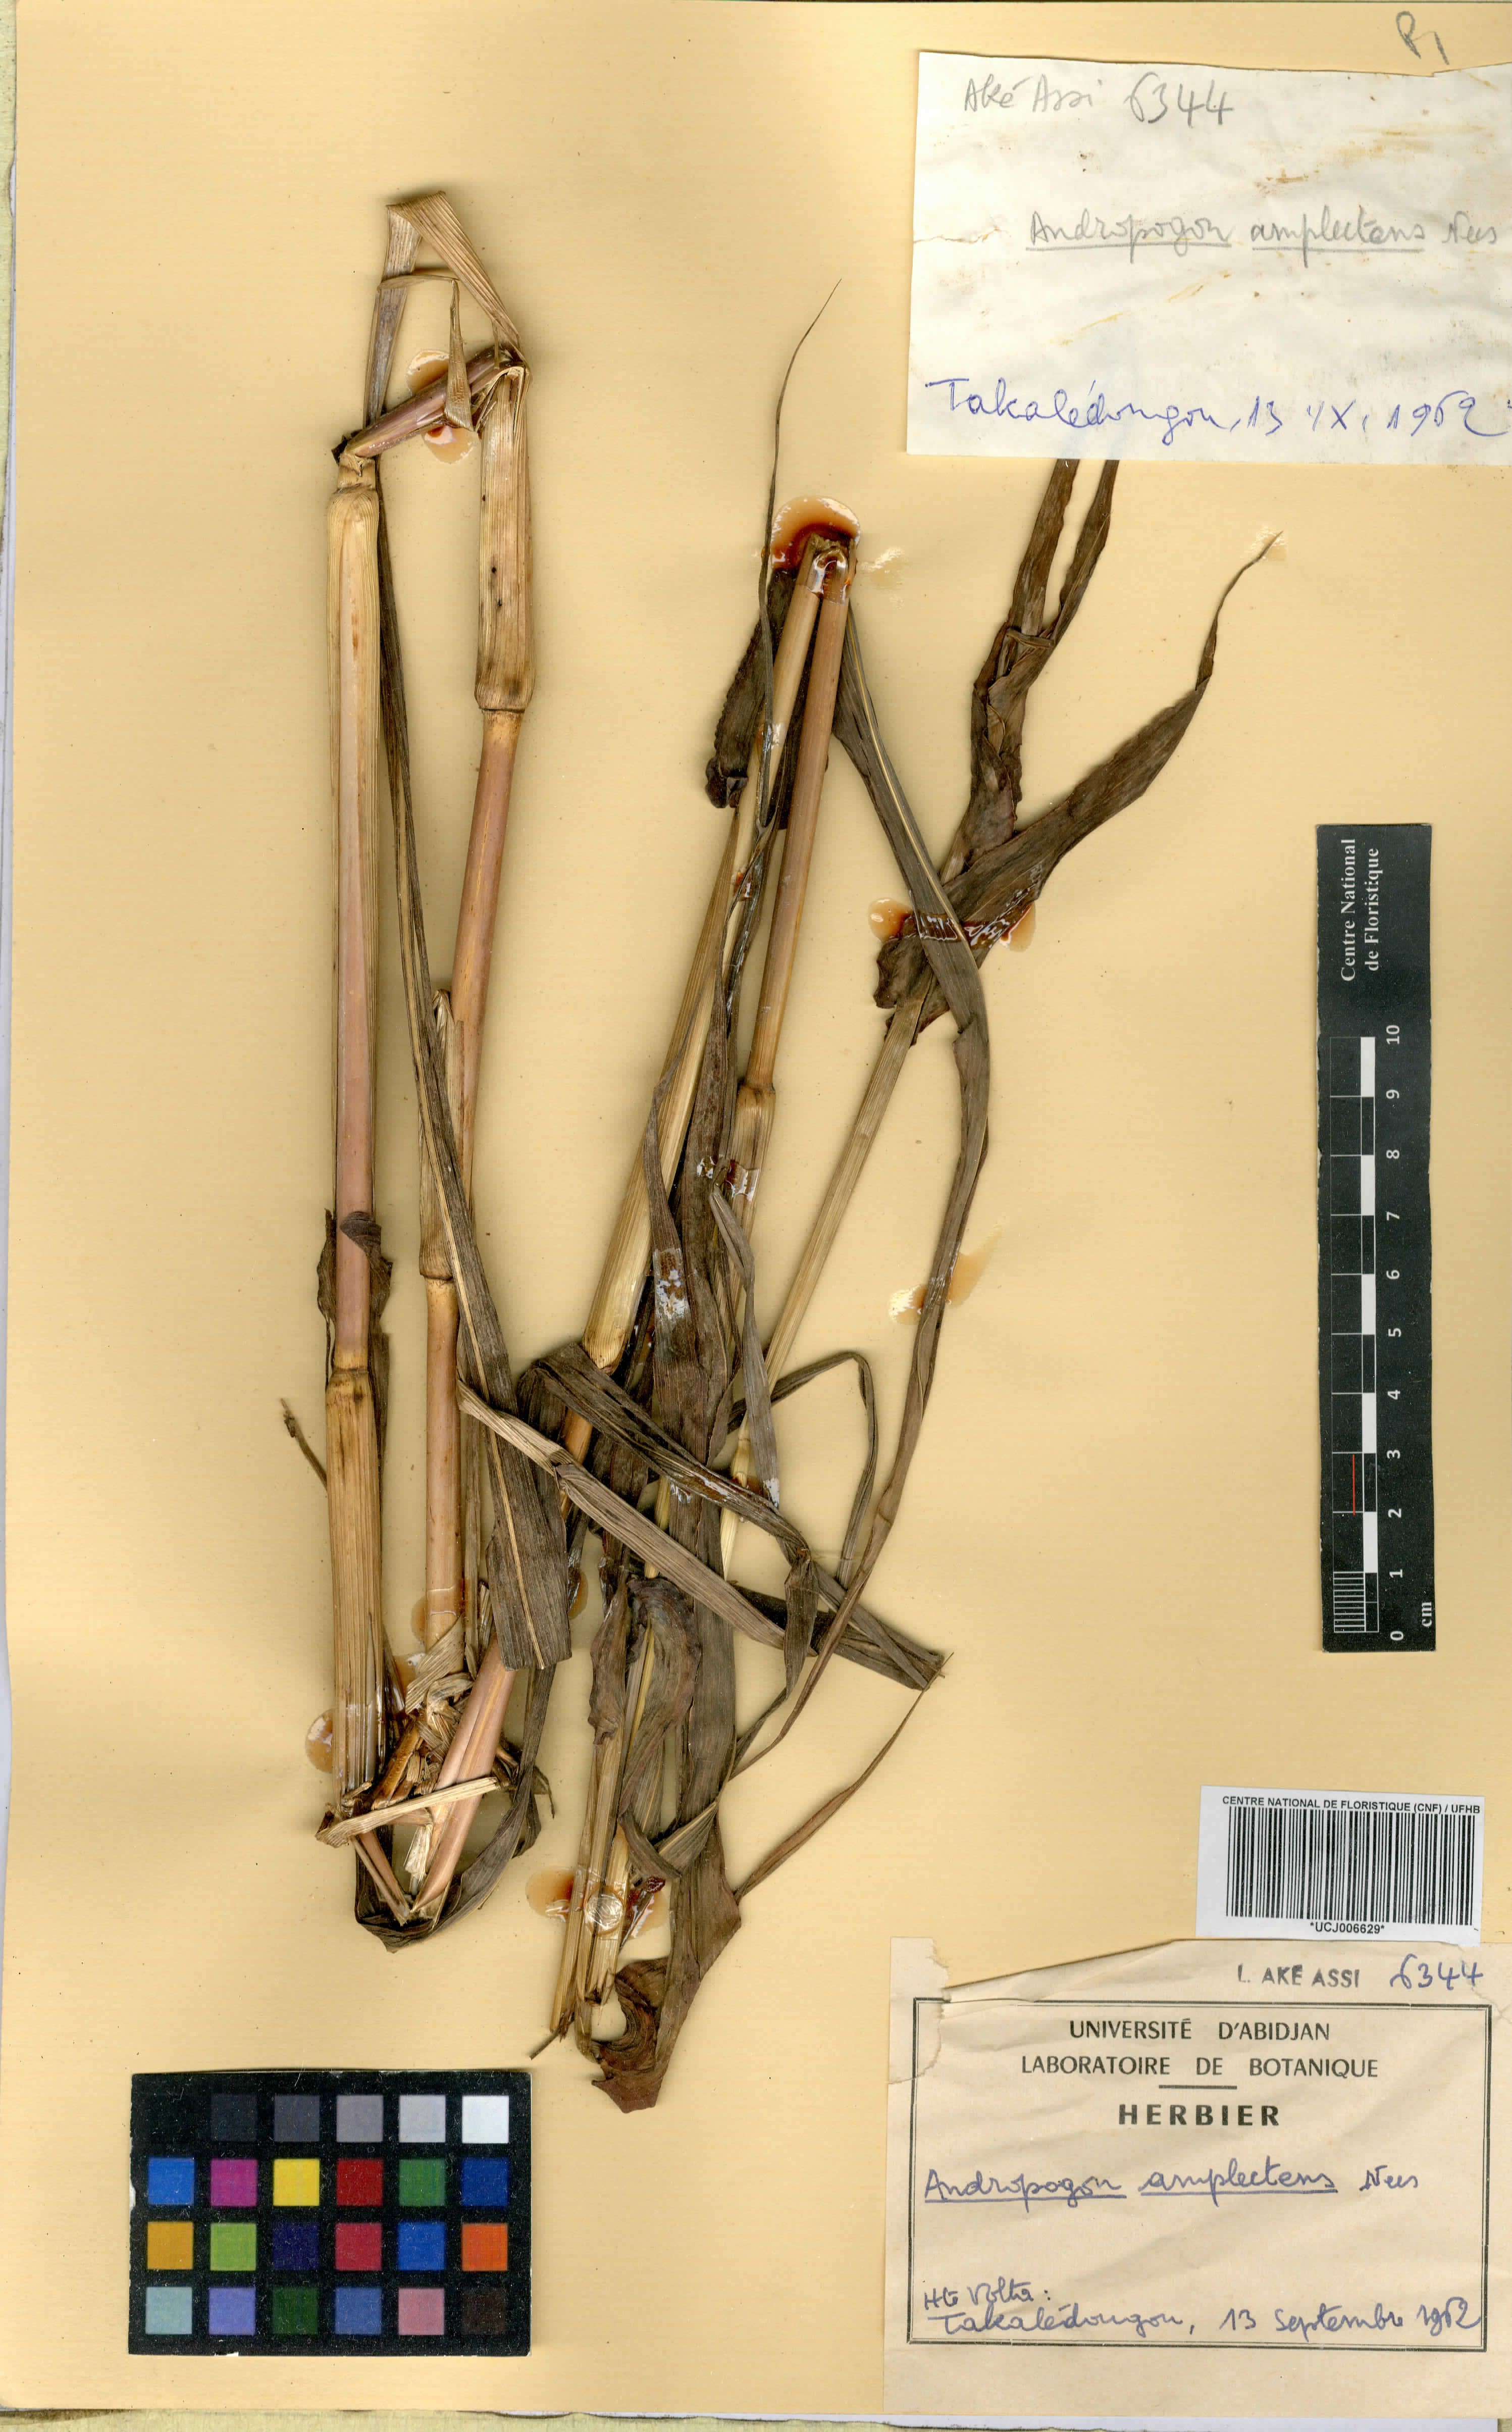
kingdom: Plantae
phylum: Tracheophyta
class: Liliopsida
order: Poales
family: Poaceae
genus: Diheteropogon
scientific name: Diheteropogon amplectens
